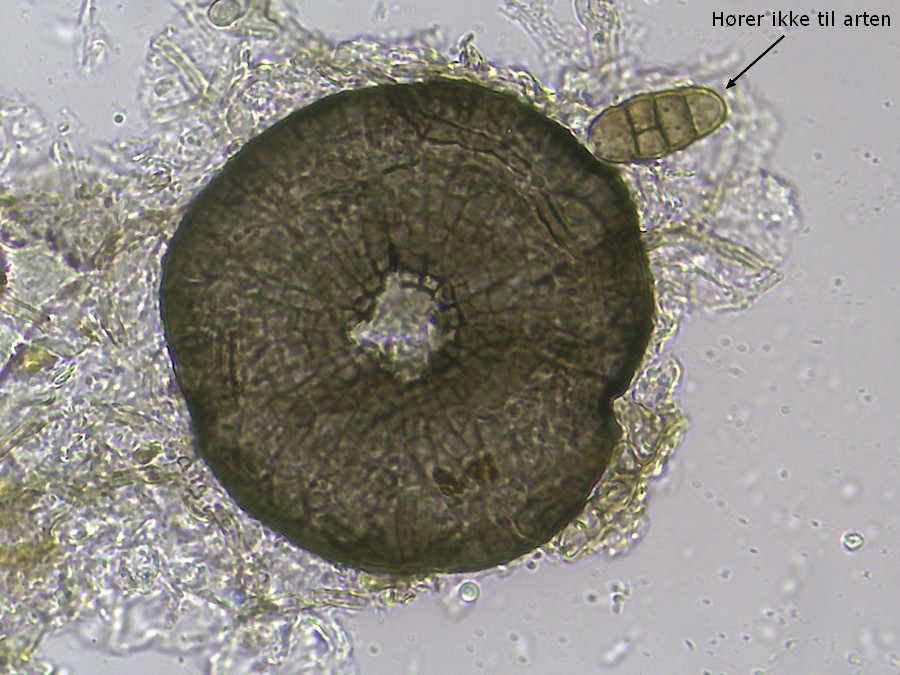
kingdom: Fungi
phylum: Ascomycota
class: Dothideomycetes
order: Microthyriales
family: Microthyriaceae
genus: Lichenopeltella
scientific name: Lichenopeltella pinophylla
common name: fyrrenåle-tykplet
